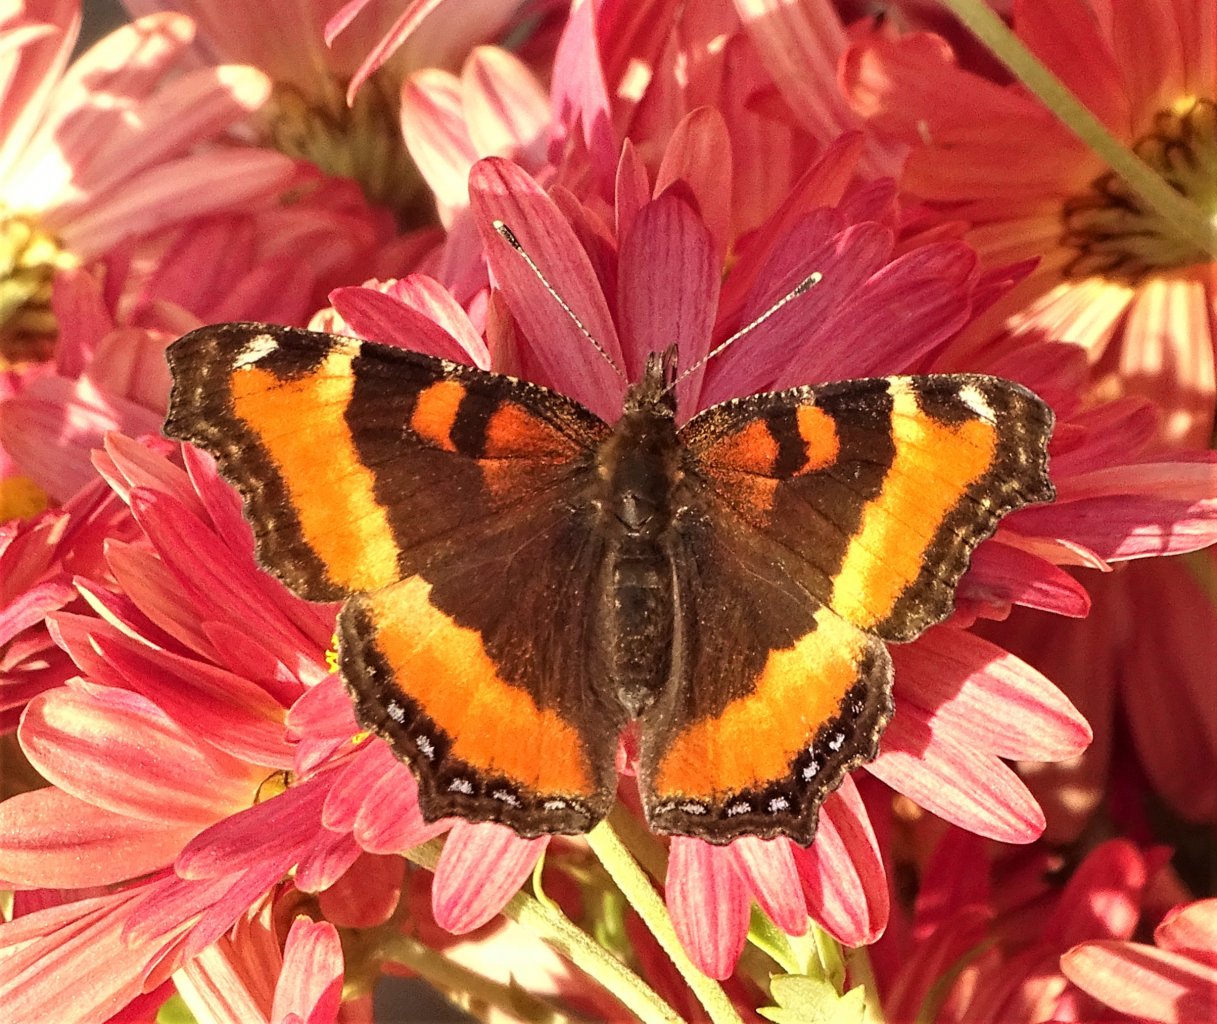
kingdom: Animalia
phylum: Arthropoda
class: Insecta
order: Lepidoptera
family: Nymphalidae
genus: Aglais
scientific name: Aglais milberti
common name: Milbert's Tortoiseshell
